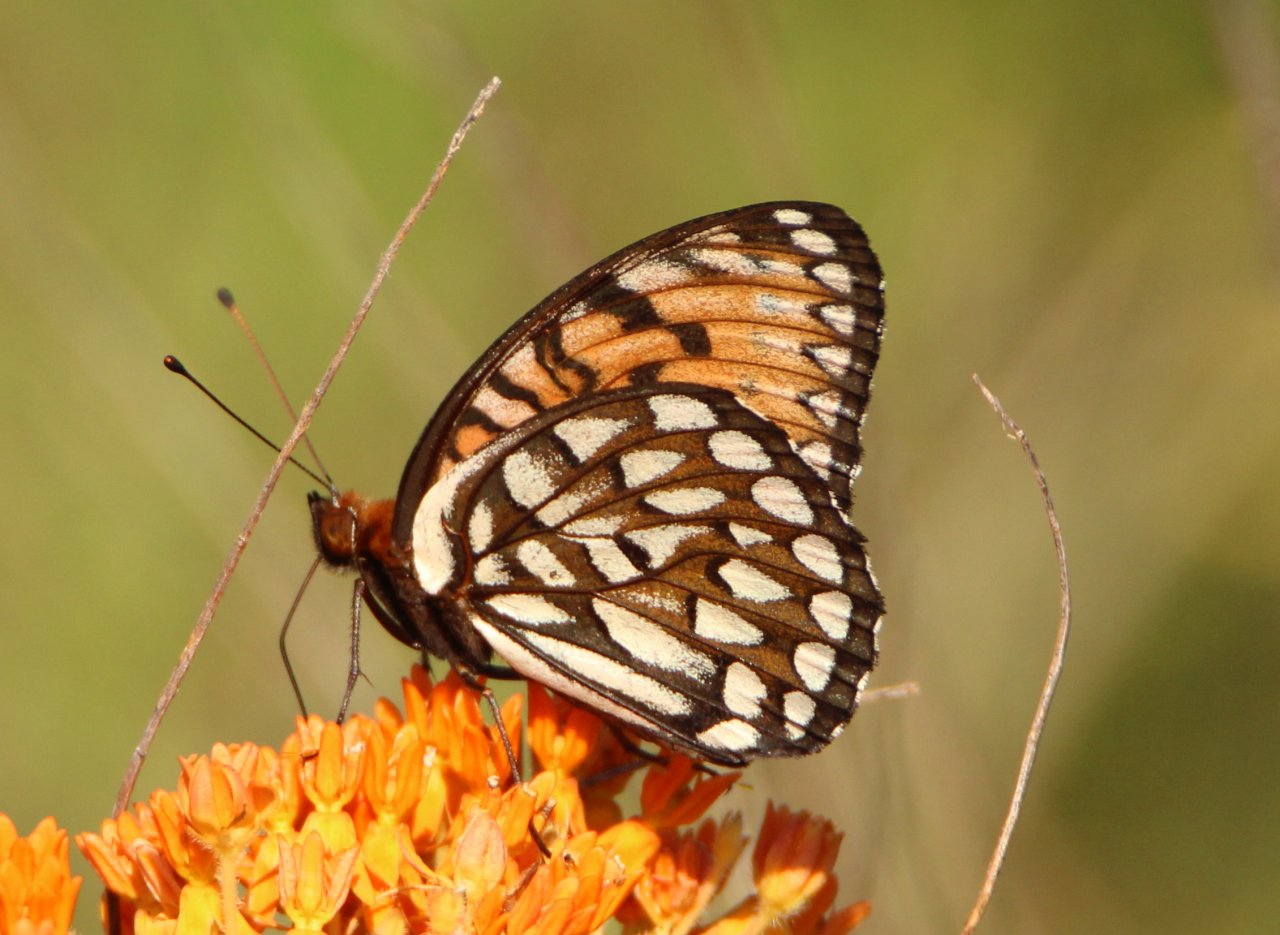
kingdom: Animalia
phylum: Arthropoda
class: Insecta
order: Lepidoptera
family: Nymphalidae
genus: Speyeria
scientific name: Speyeria idalia
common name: Regal Fritillary
